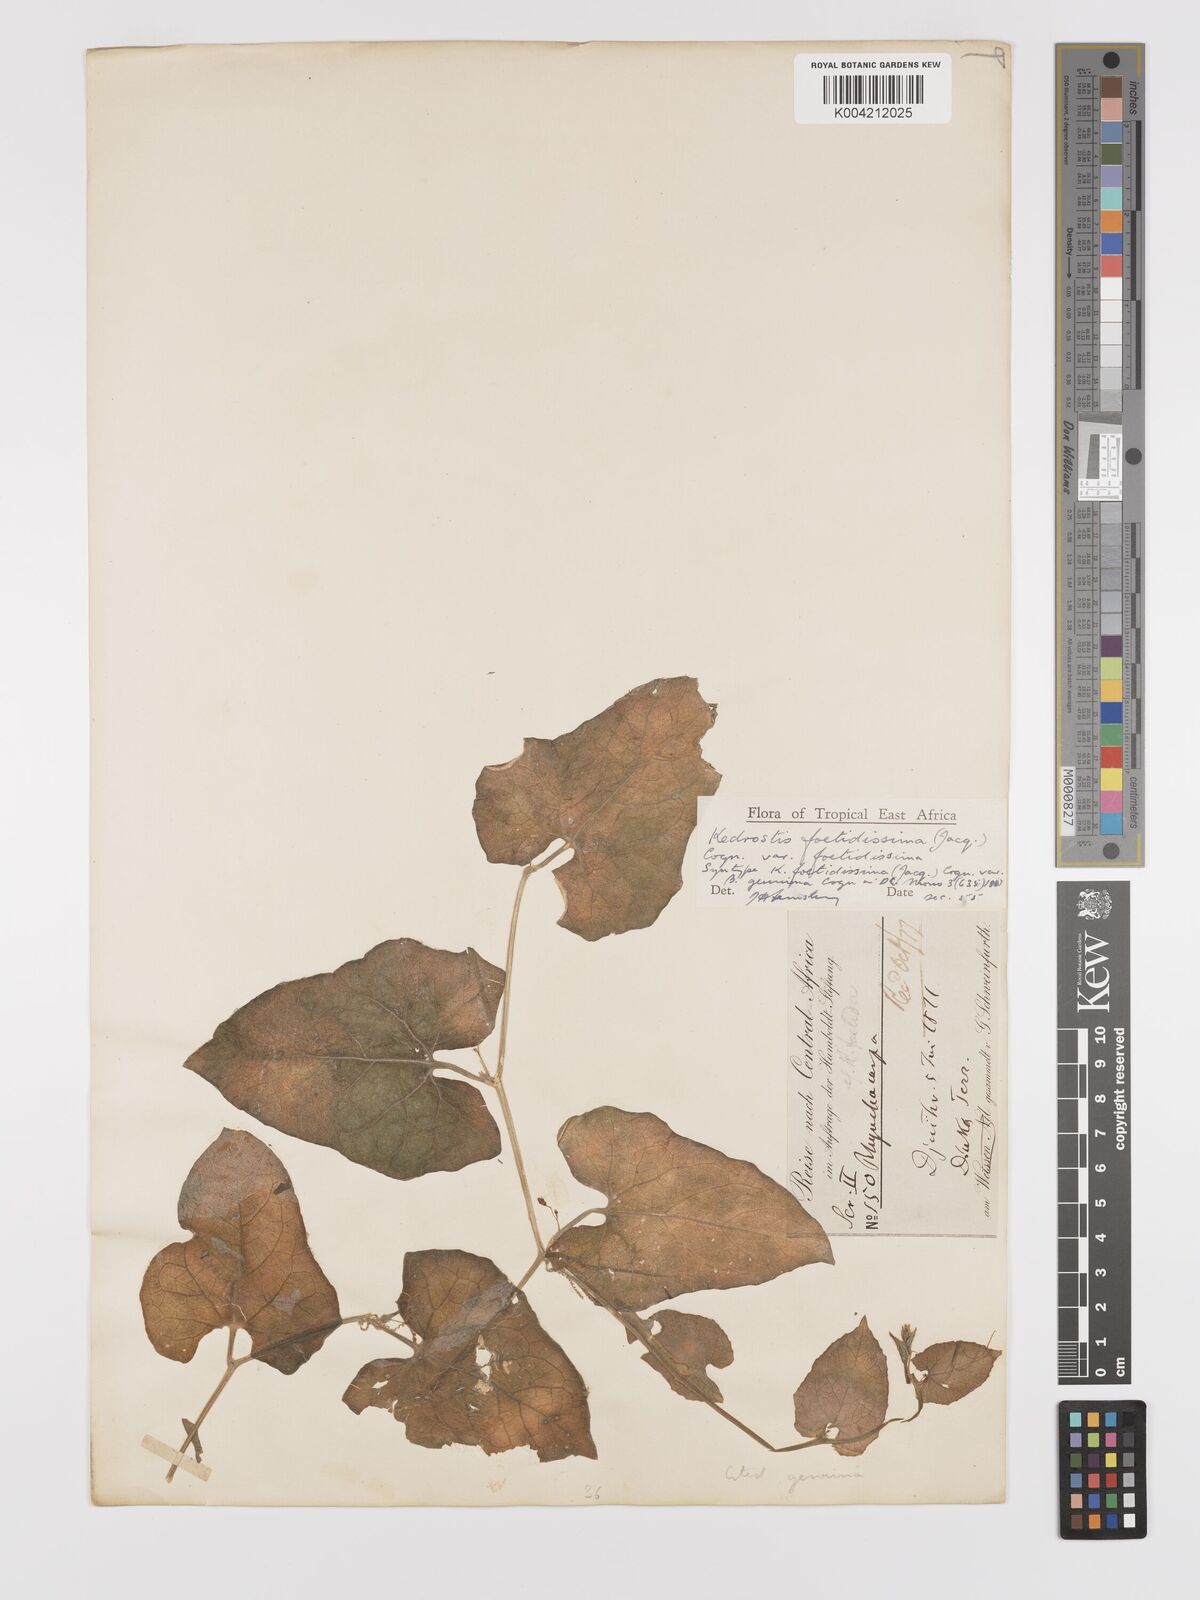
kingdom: Plantae
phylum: Tracheophyta
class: Magnoliopsida
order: Cucurbitales
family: Cucurbitaceae
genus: Kedrostis
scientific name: Kedrostis foetidissima
